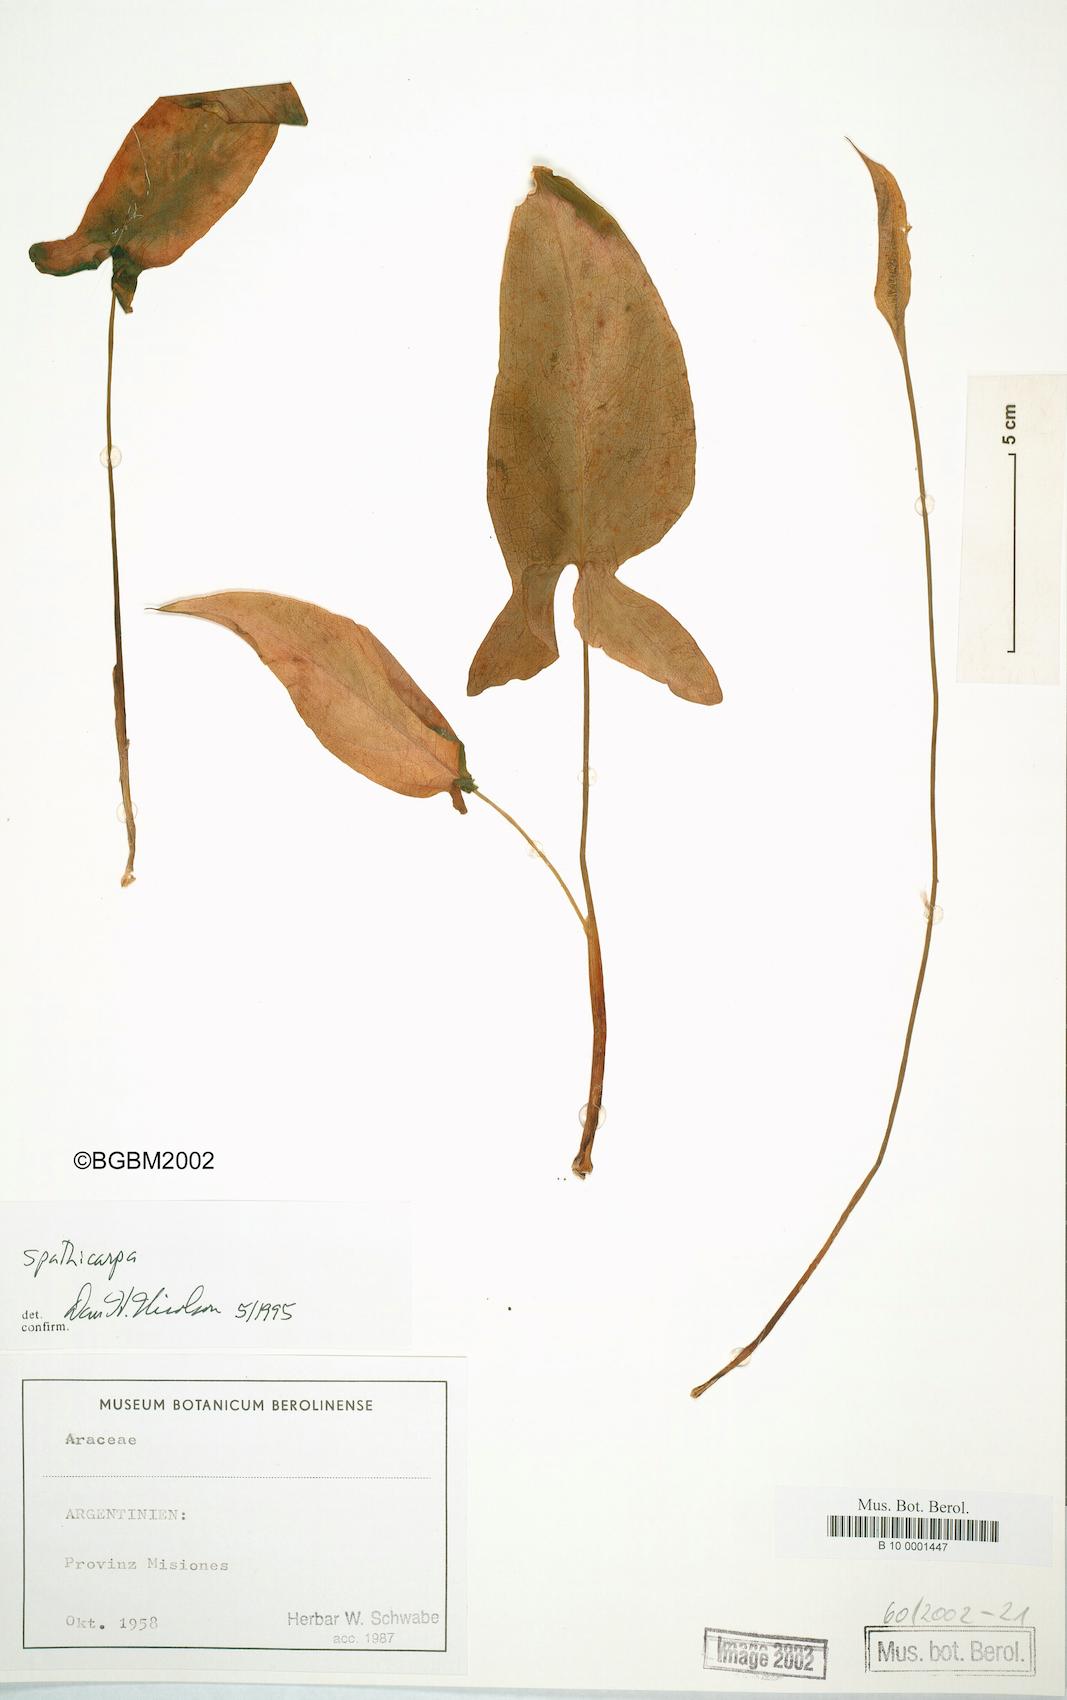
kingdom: Plantae
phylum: Tracheophyta
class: Liliopsida
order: Alismatales
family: Araceae
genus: Spathicarpa
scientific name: Spathicarpa
